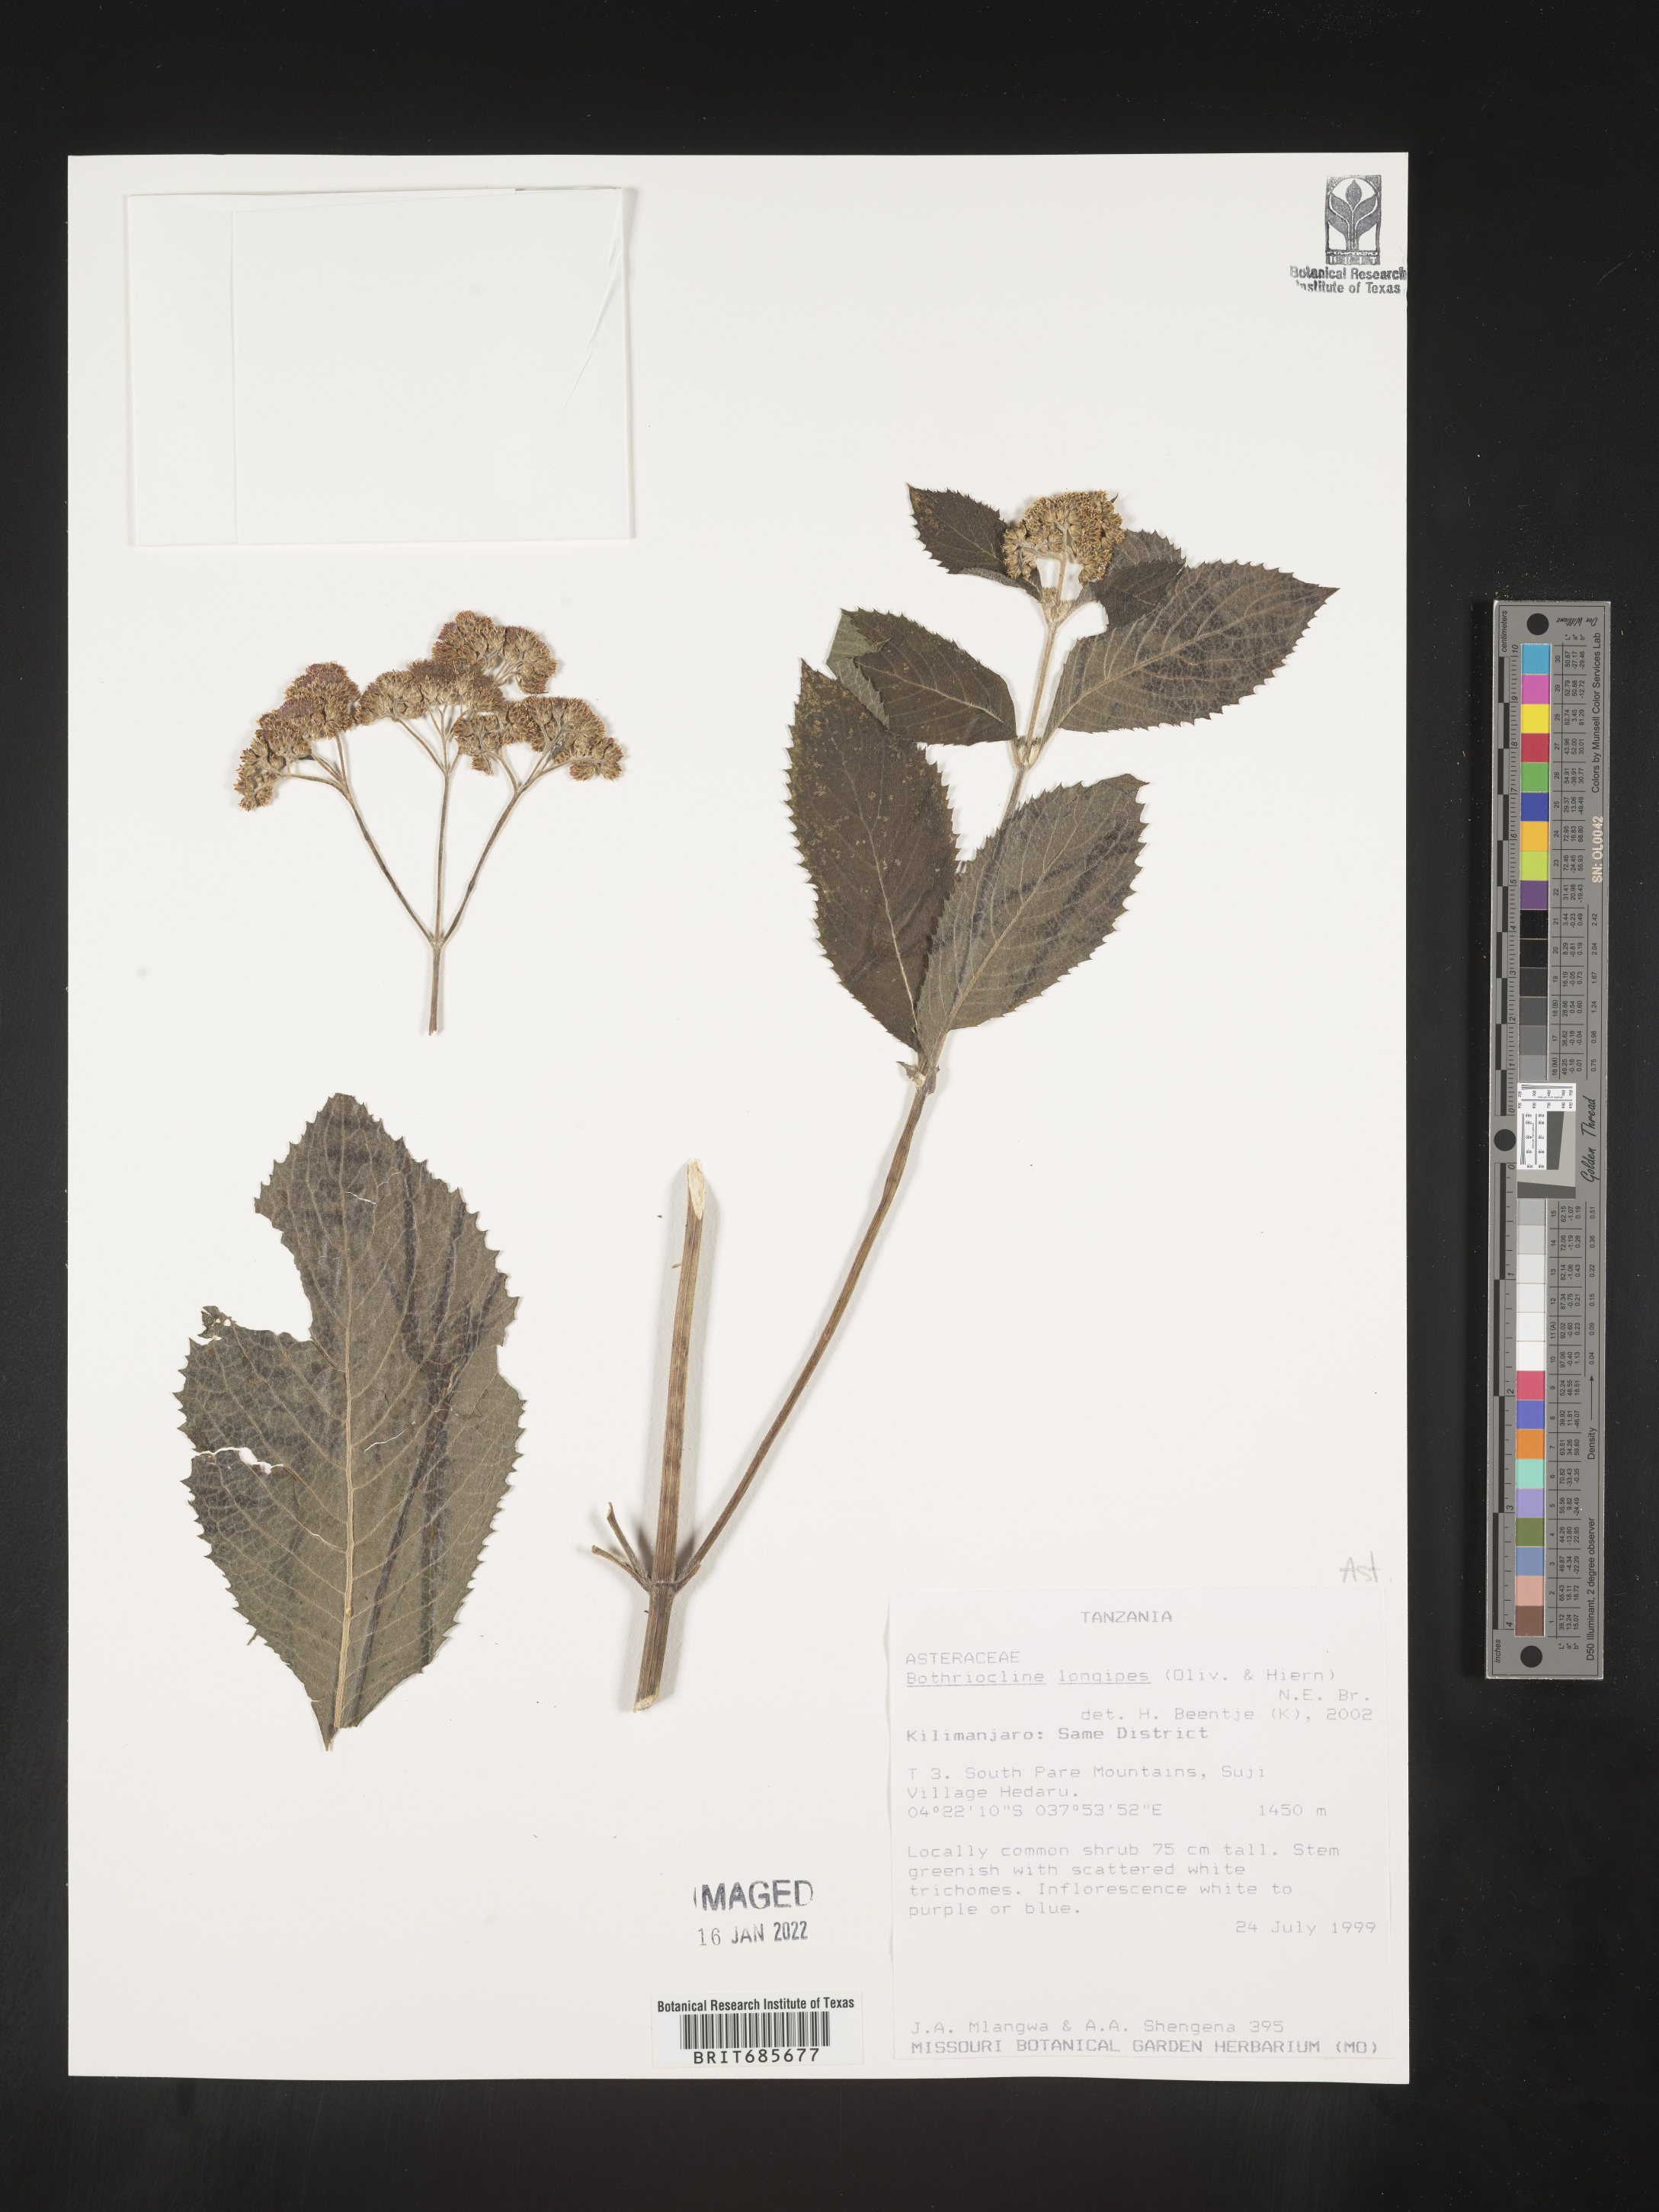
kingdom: Plantae
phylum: Tracheophyta
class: Magnoliopsida
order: Asterales
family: Asteraceae
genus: Bothriocline
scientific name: Bothriocline
